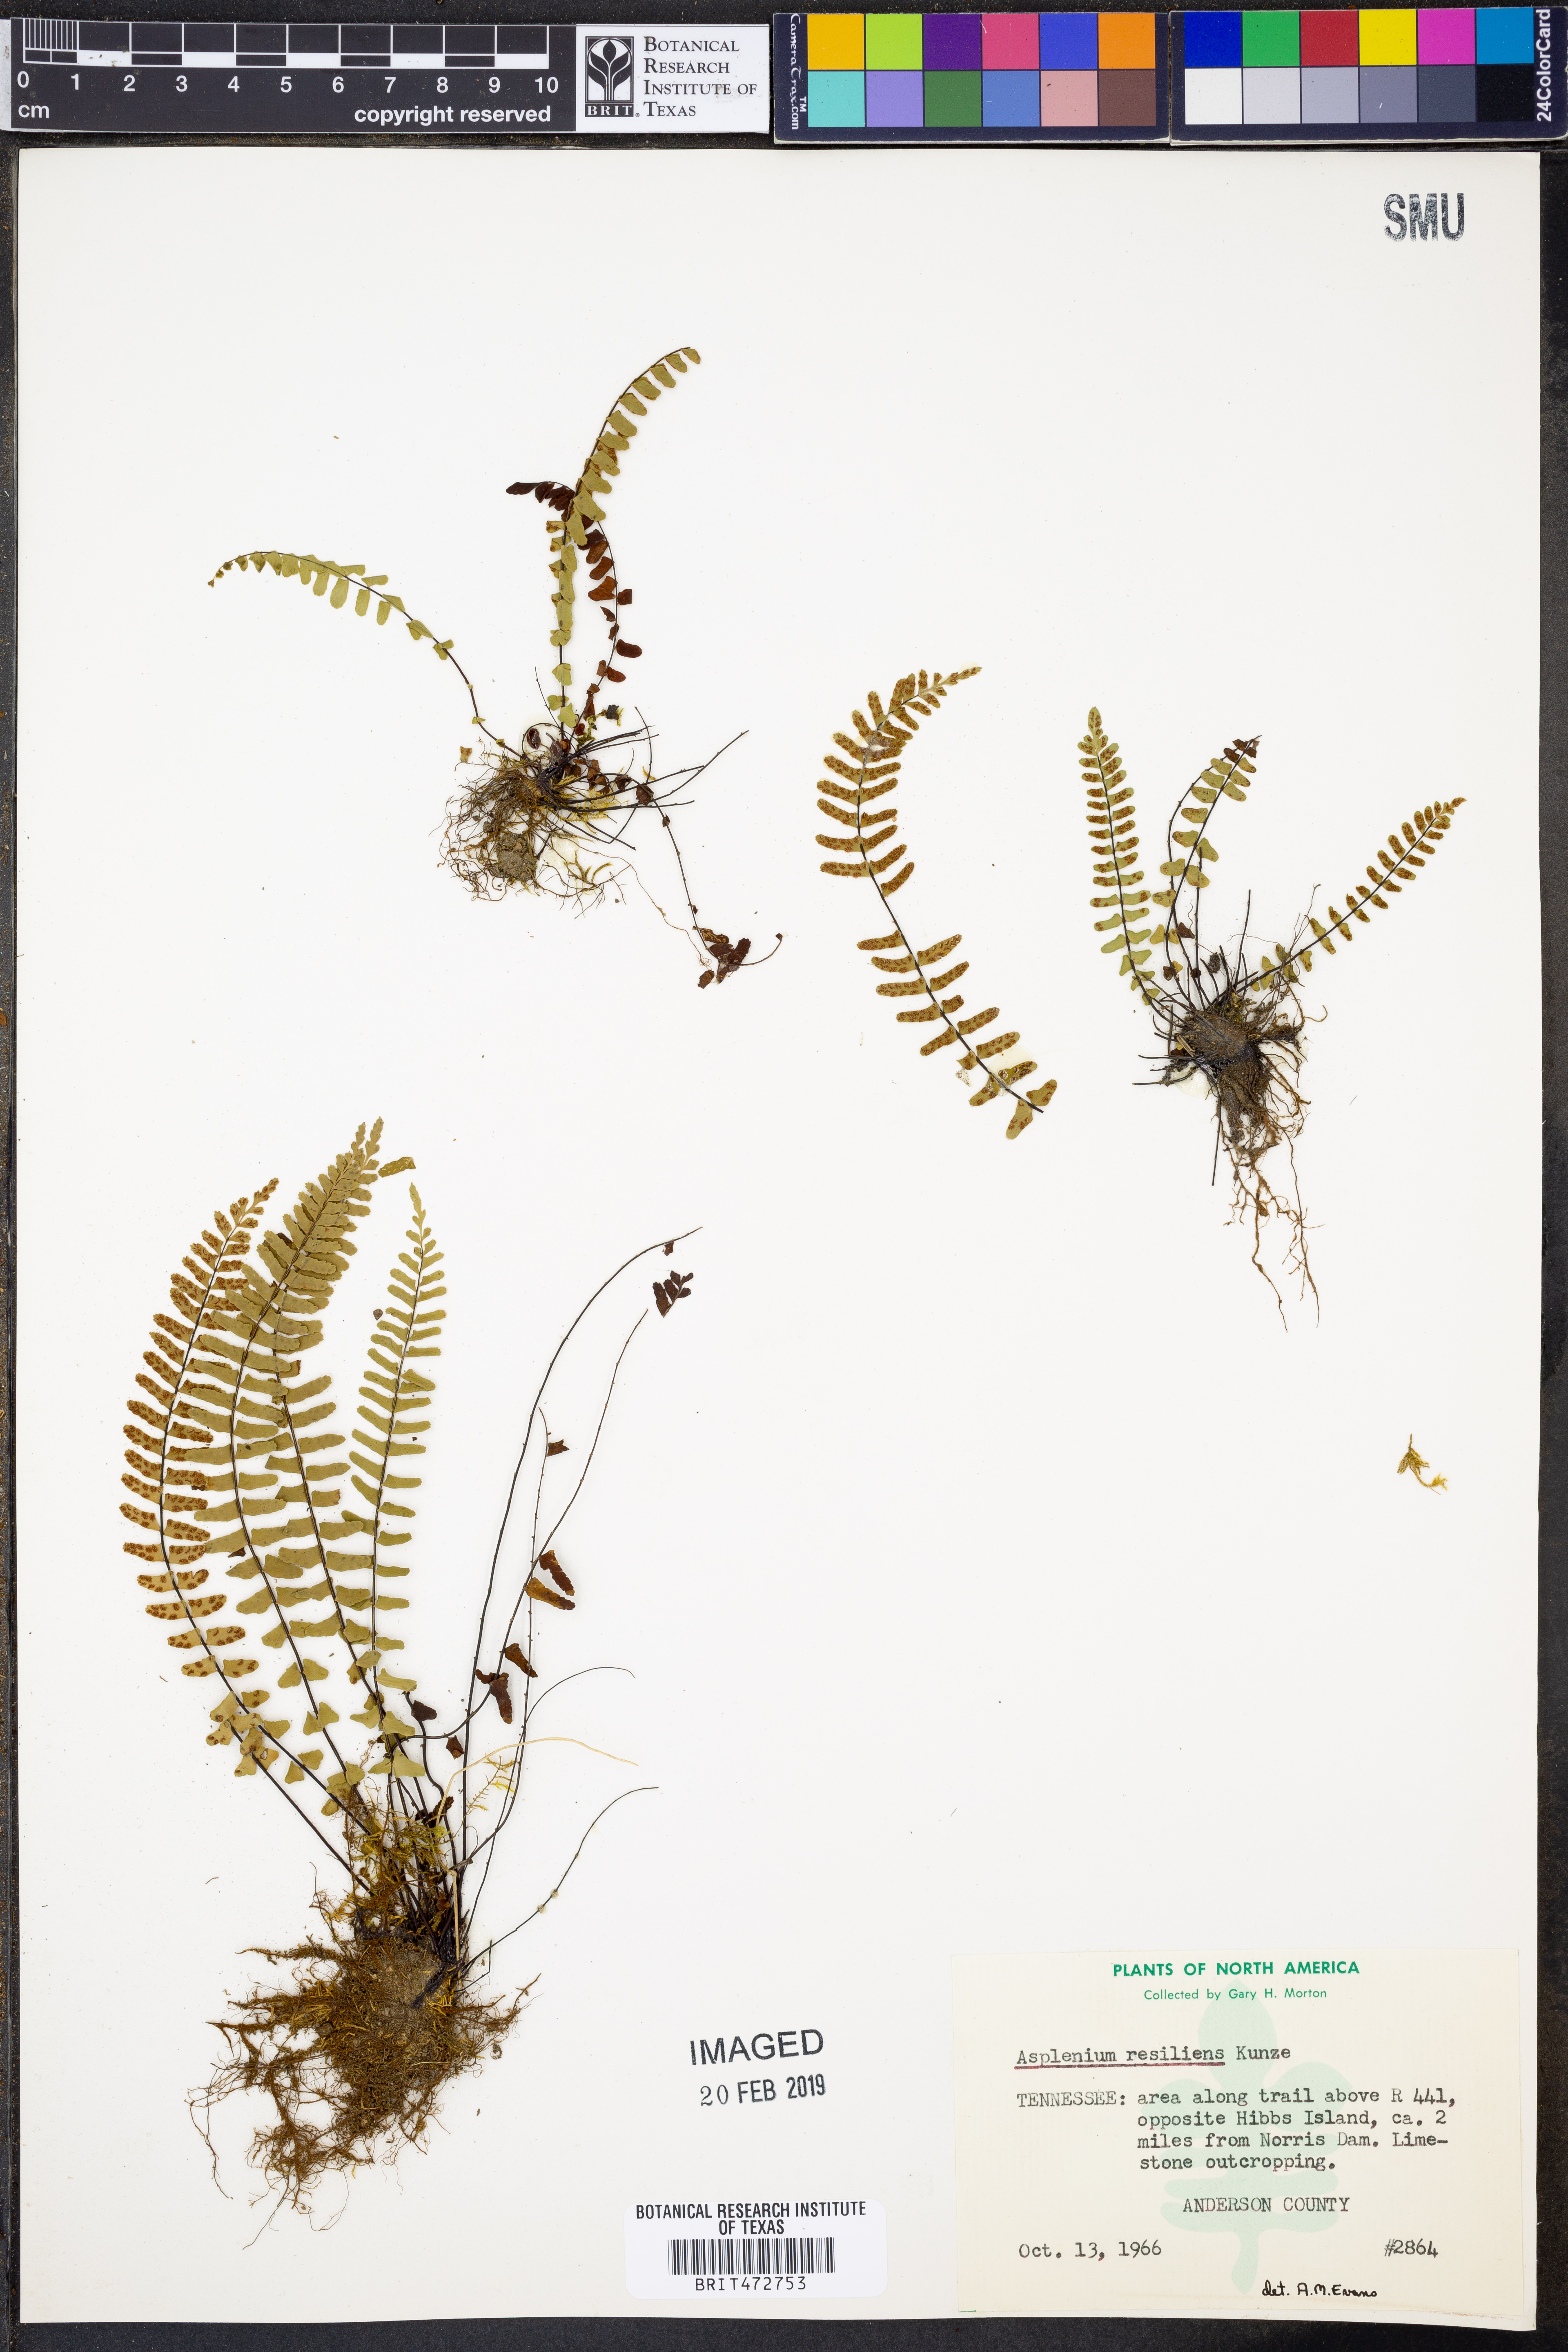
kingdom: Plantae
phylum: Tracheophyta
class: Polypodiopsida
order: Polypodiales
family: Aspleniaceae
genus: Asplenium
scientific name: Asplenium resiliens
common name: Blackstem spleenwort
